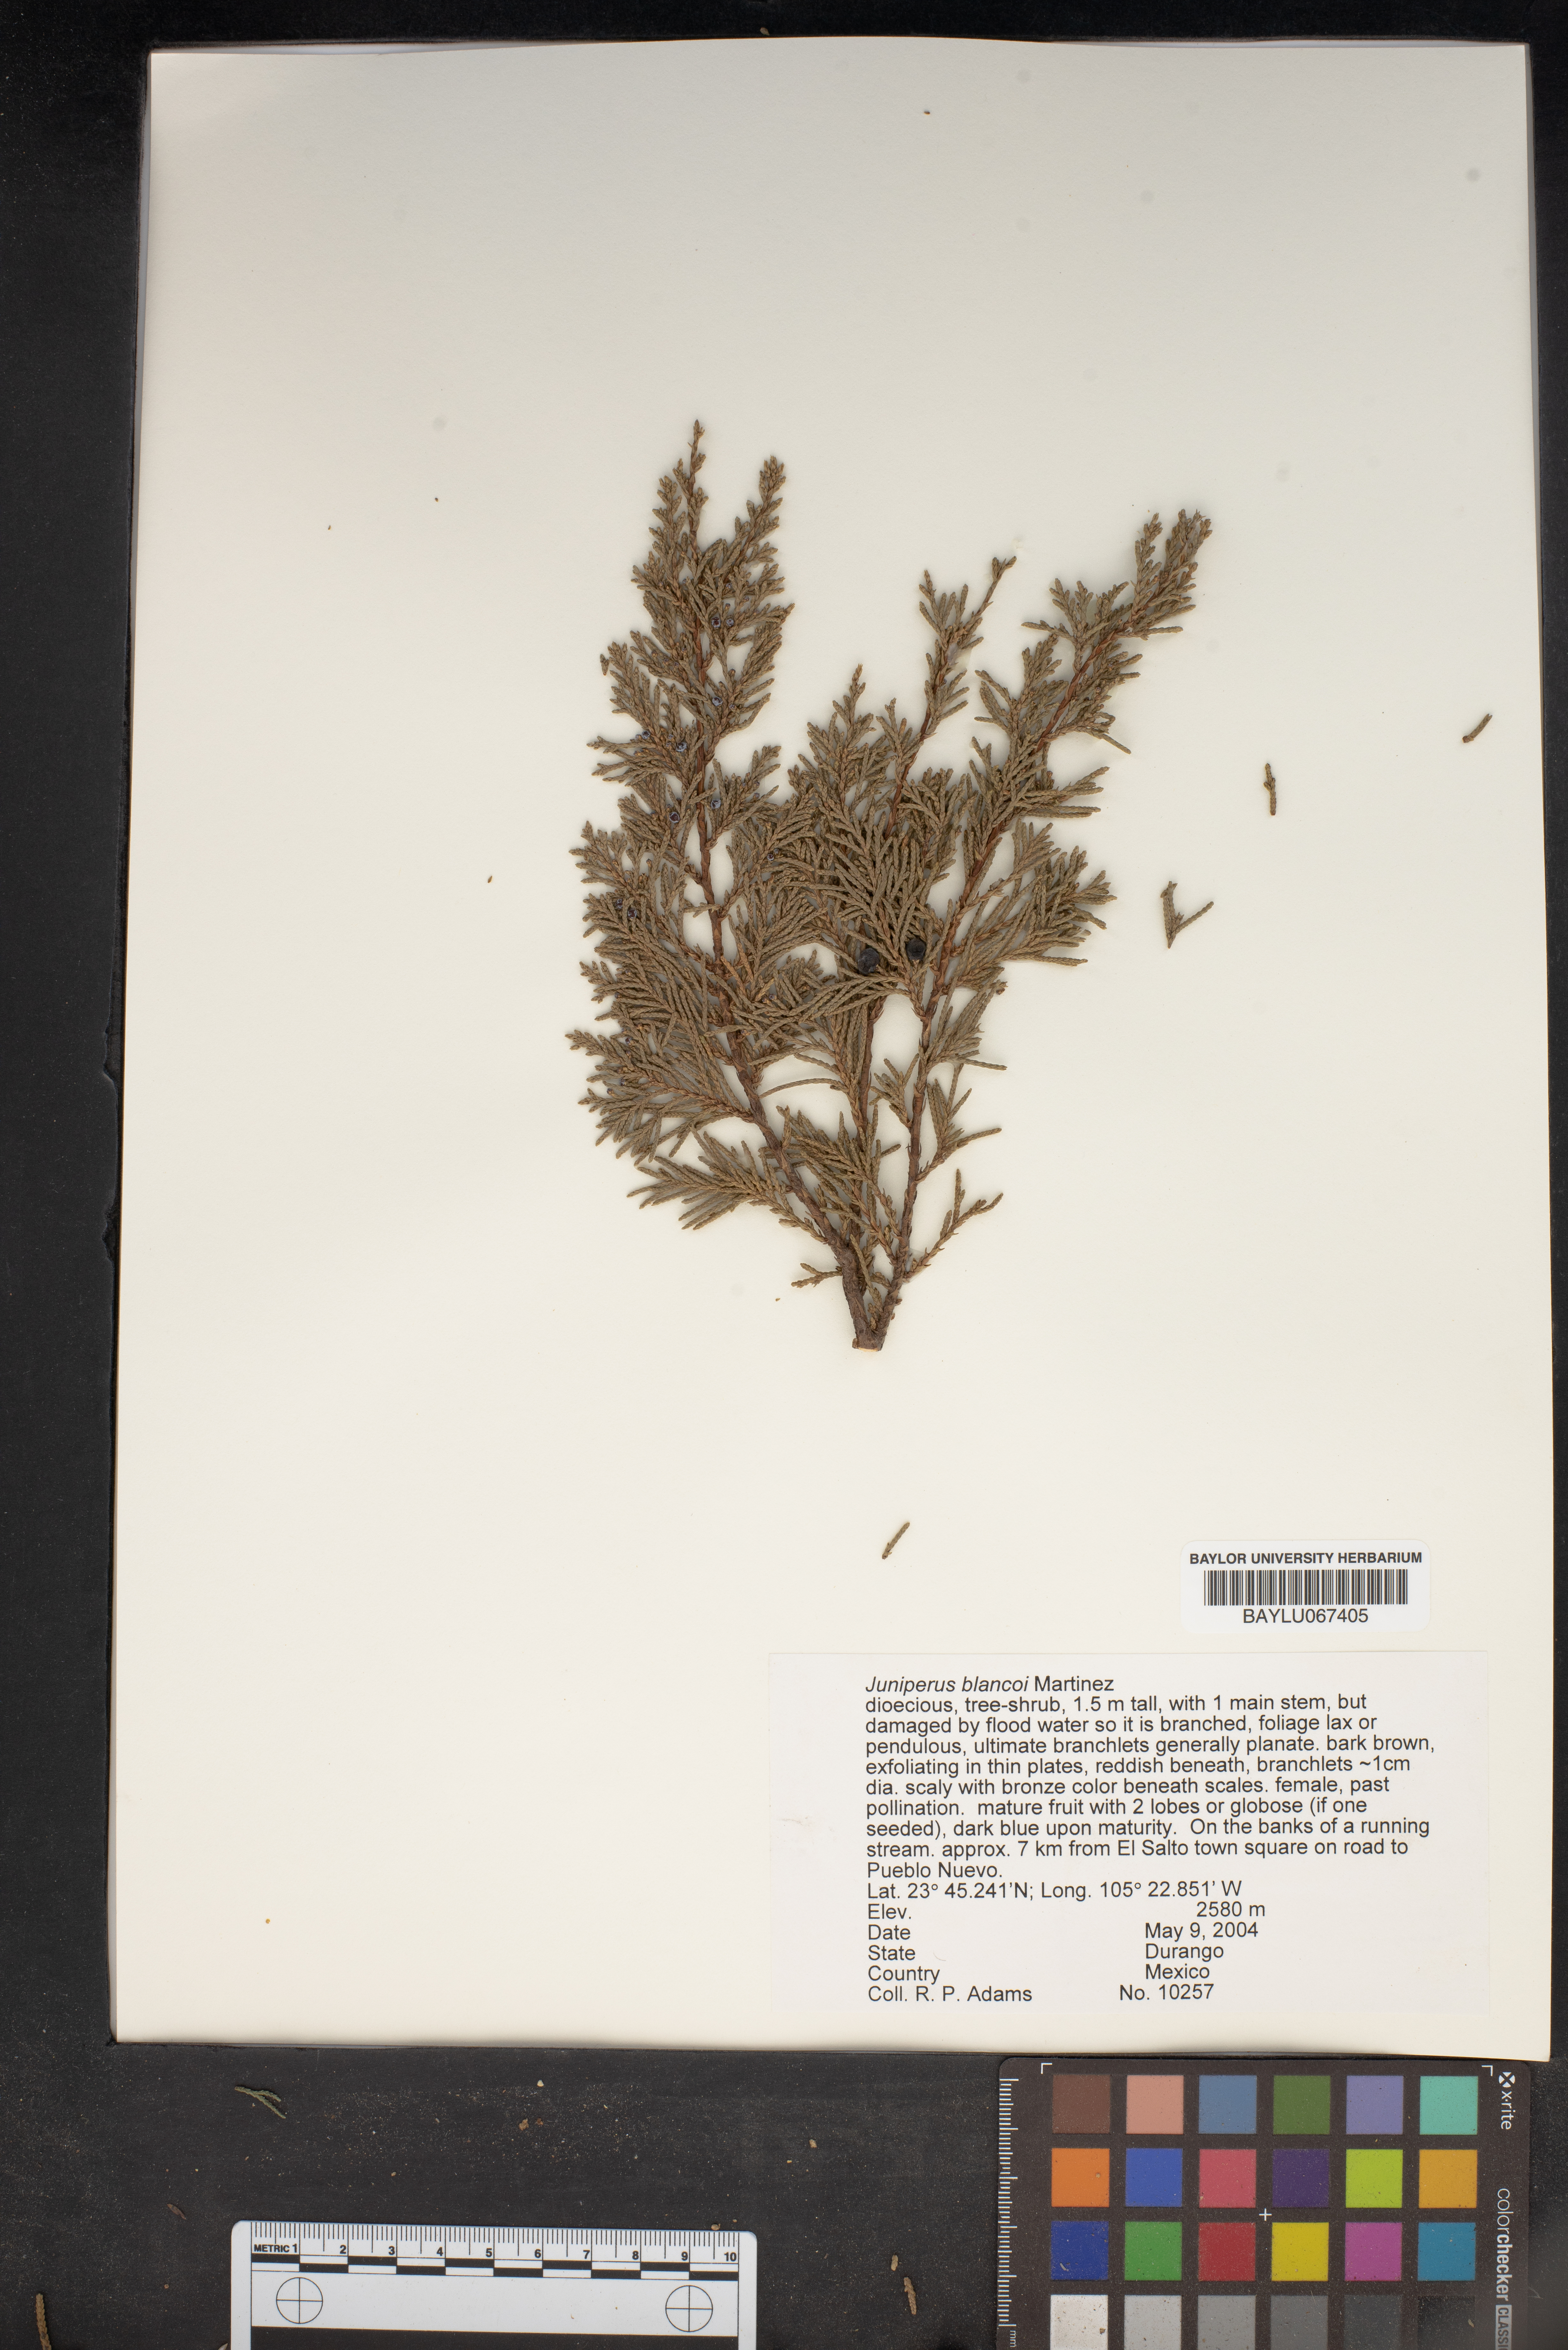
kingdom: Plantae
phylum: Tracheophyta
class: Pinopsida
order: Pinales
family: Cupressaceae
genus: Juniperus
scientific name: Juniperus blancoi
